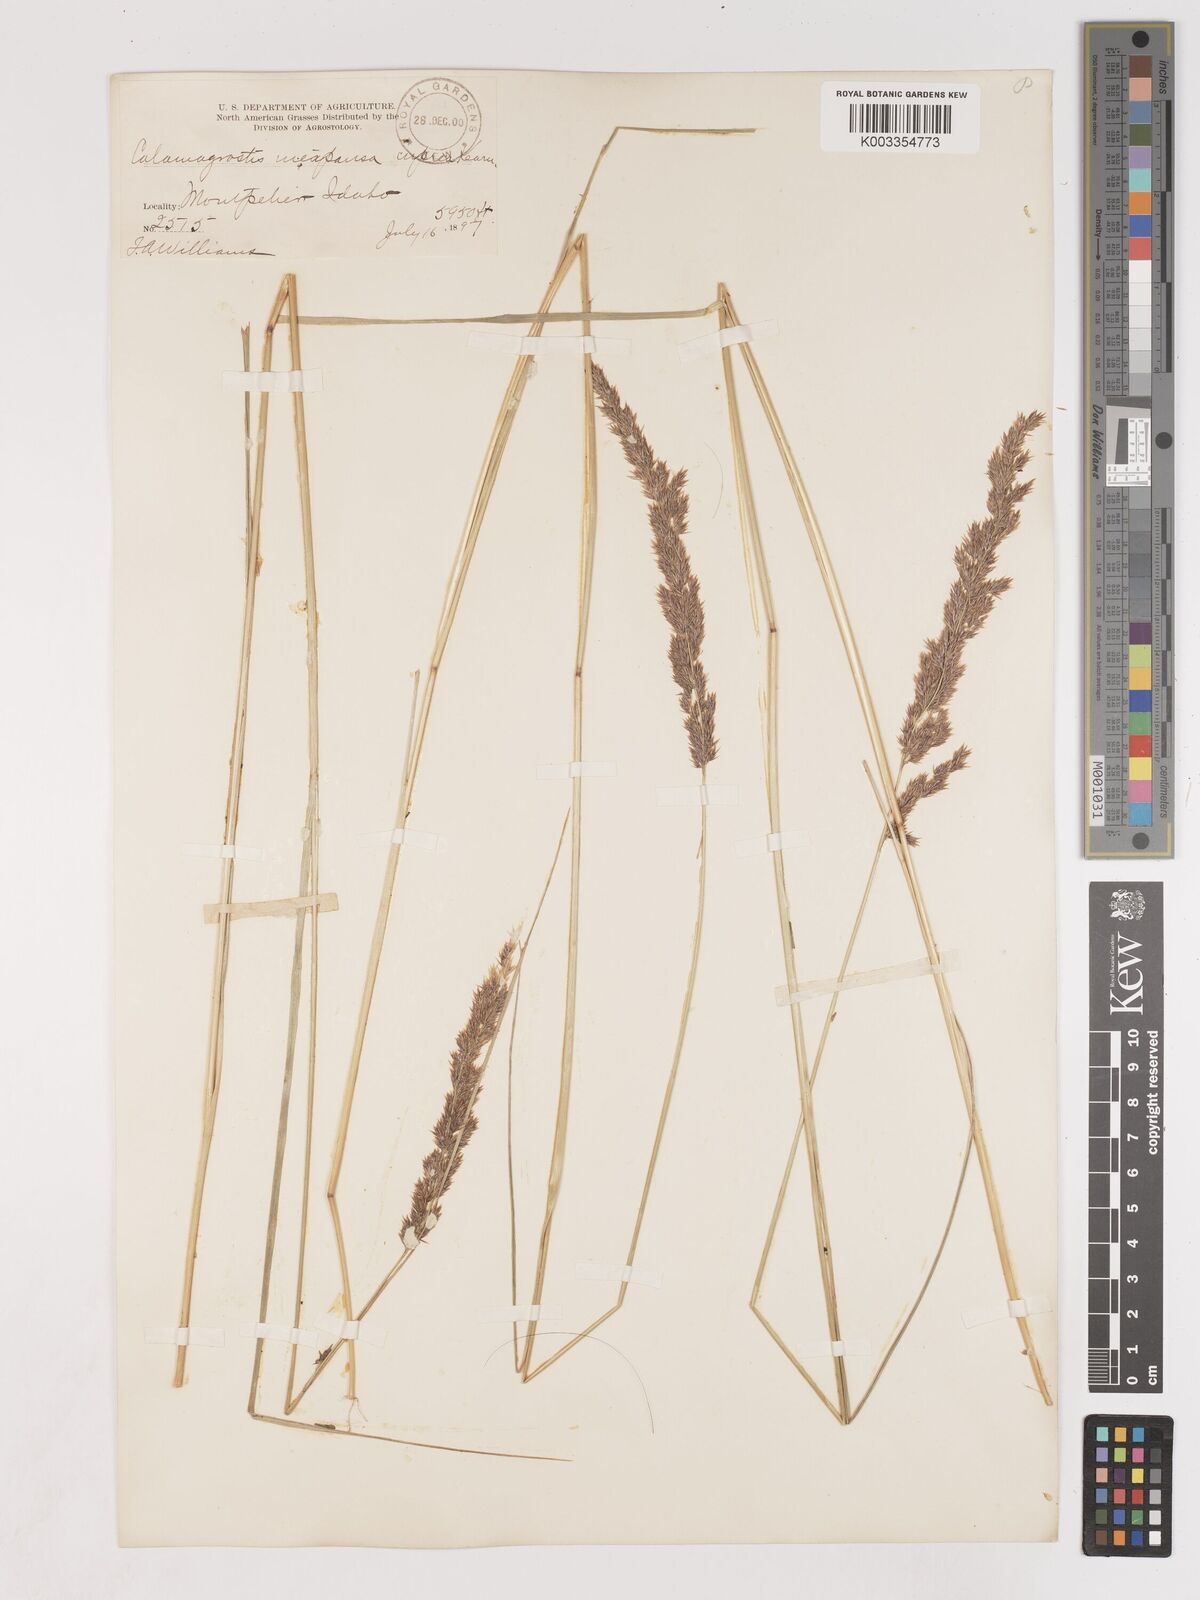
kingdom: Plantae
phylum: Tracheophyta
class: Liliopsida
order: Poales
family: Poaceae
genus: Cinnagrostis
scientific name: Cinnagrostis recta
